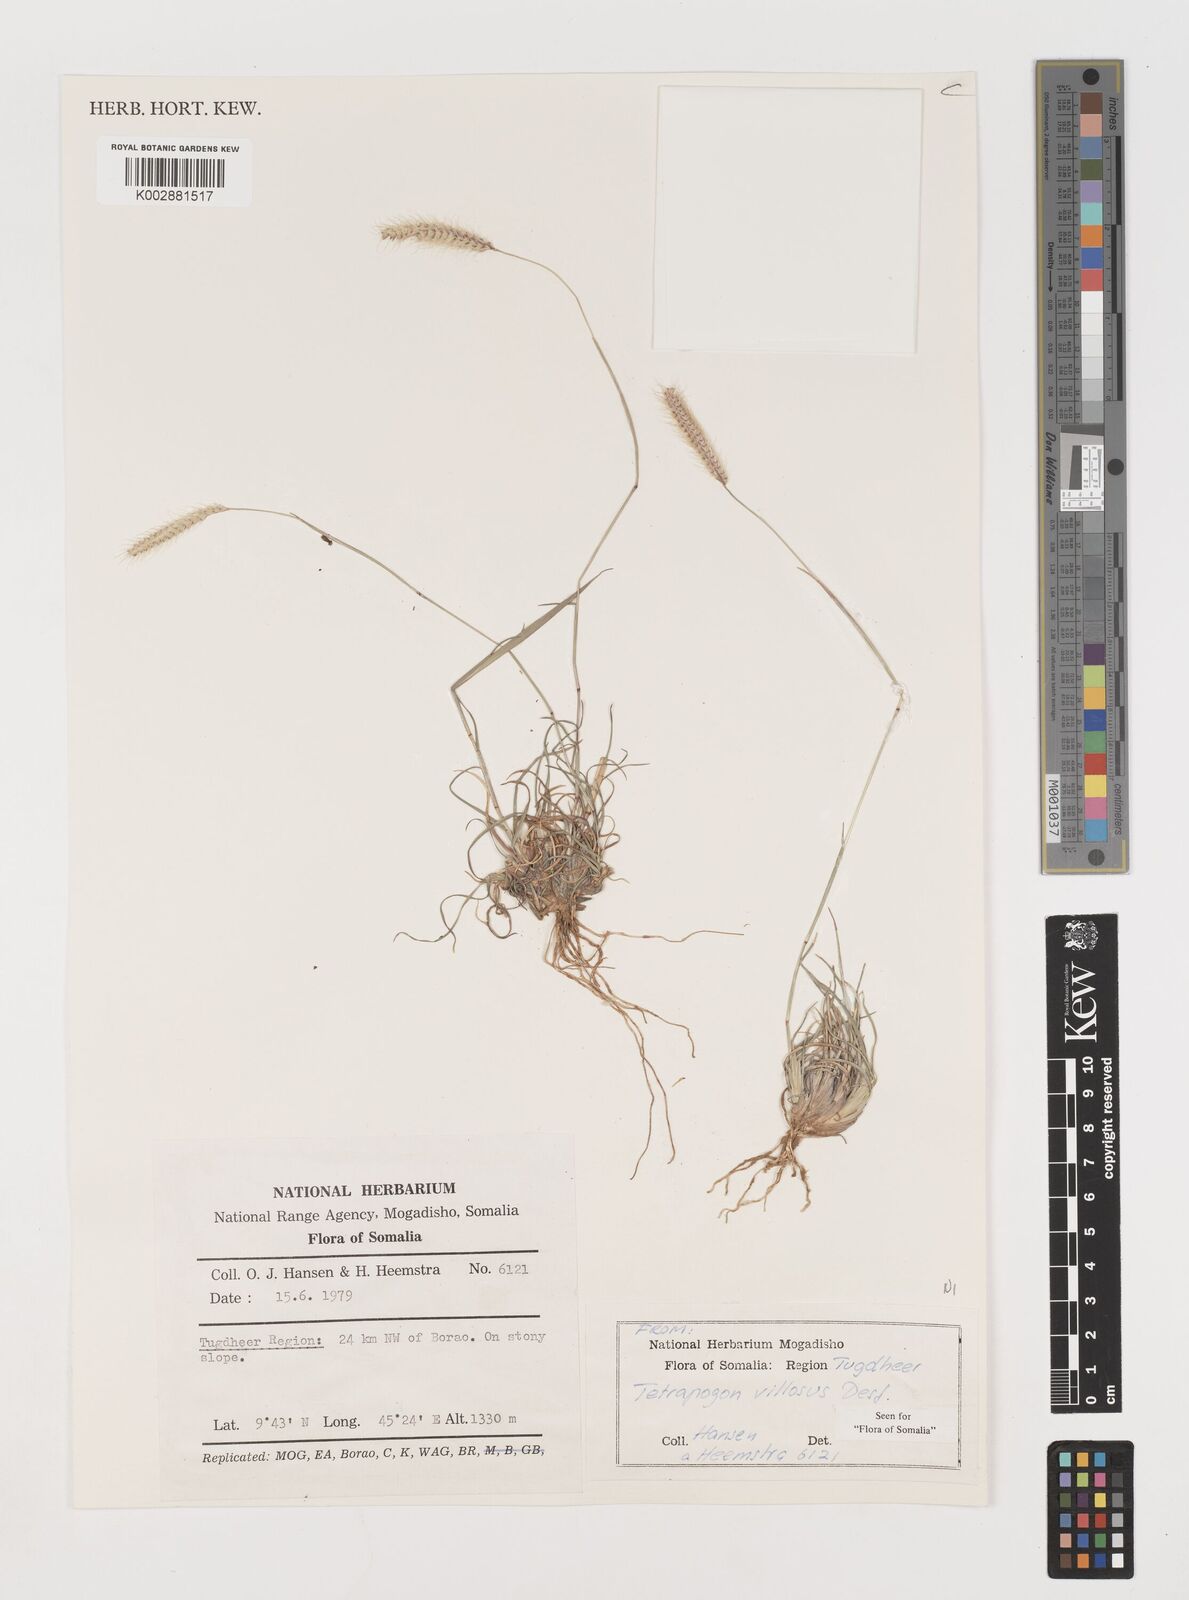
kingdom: Plantae
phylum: Tracheophyta
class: Liliopsida
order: Poales
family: Poaceae
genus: Tetrapogon
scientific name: Tetrapogon villosus
